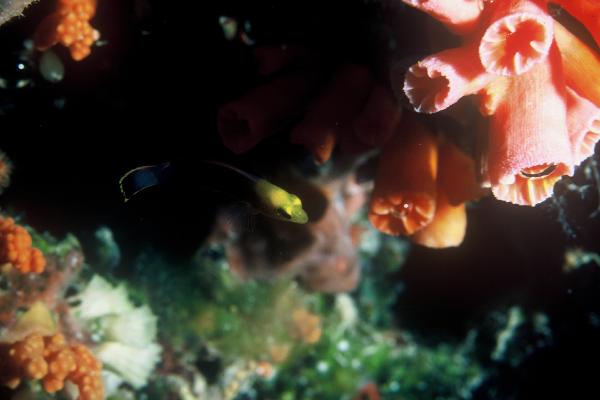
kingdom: Animalia
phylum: Chordata
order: Perciformes
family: Pseudochromidae
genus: Pseudochromis
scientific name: Pseudochromis elongatus
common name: Elongate dottyback
